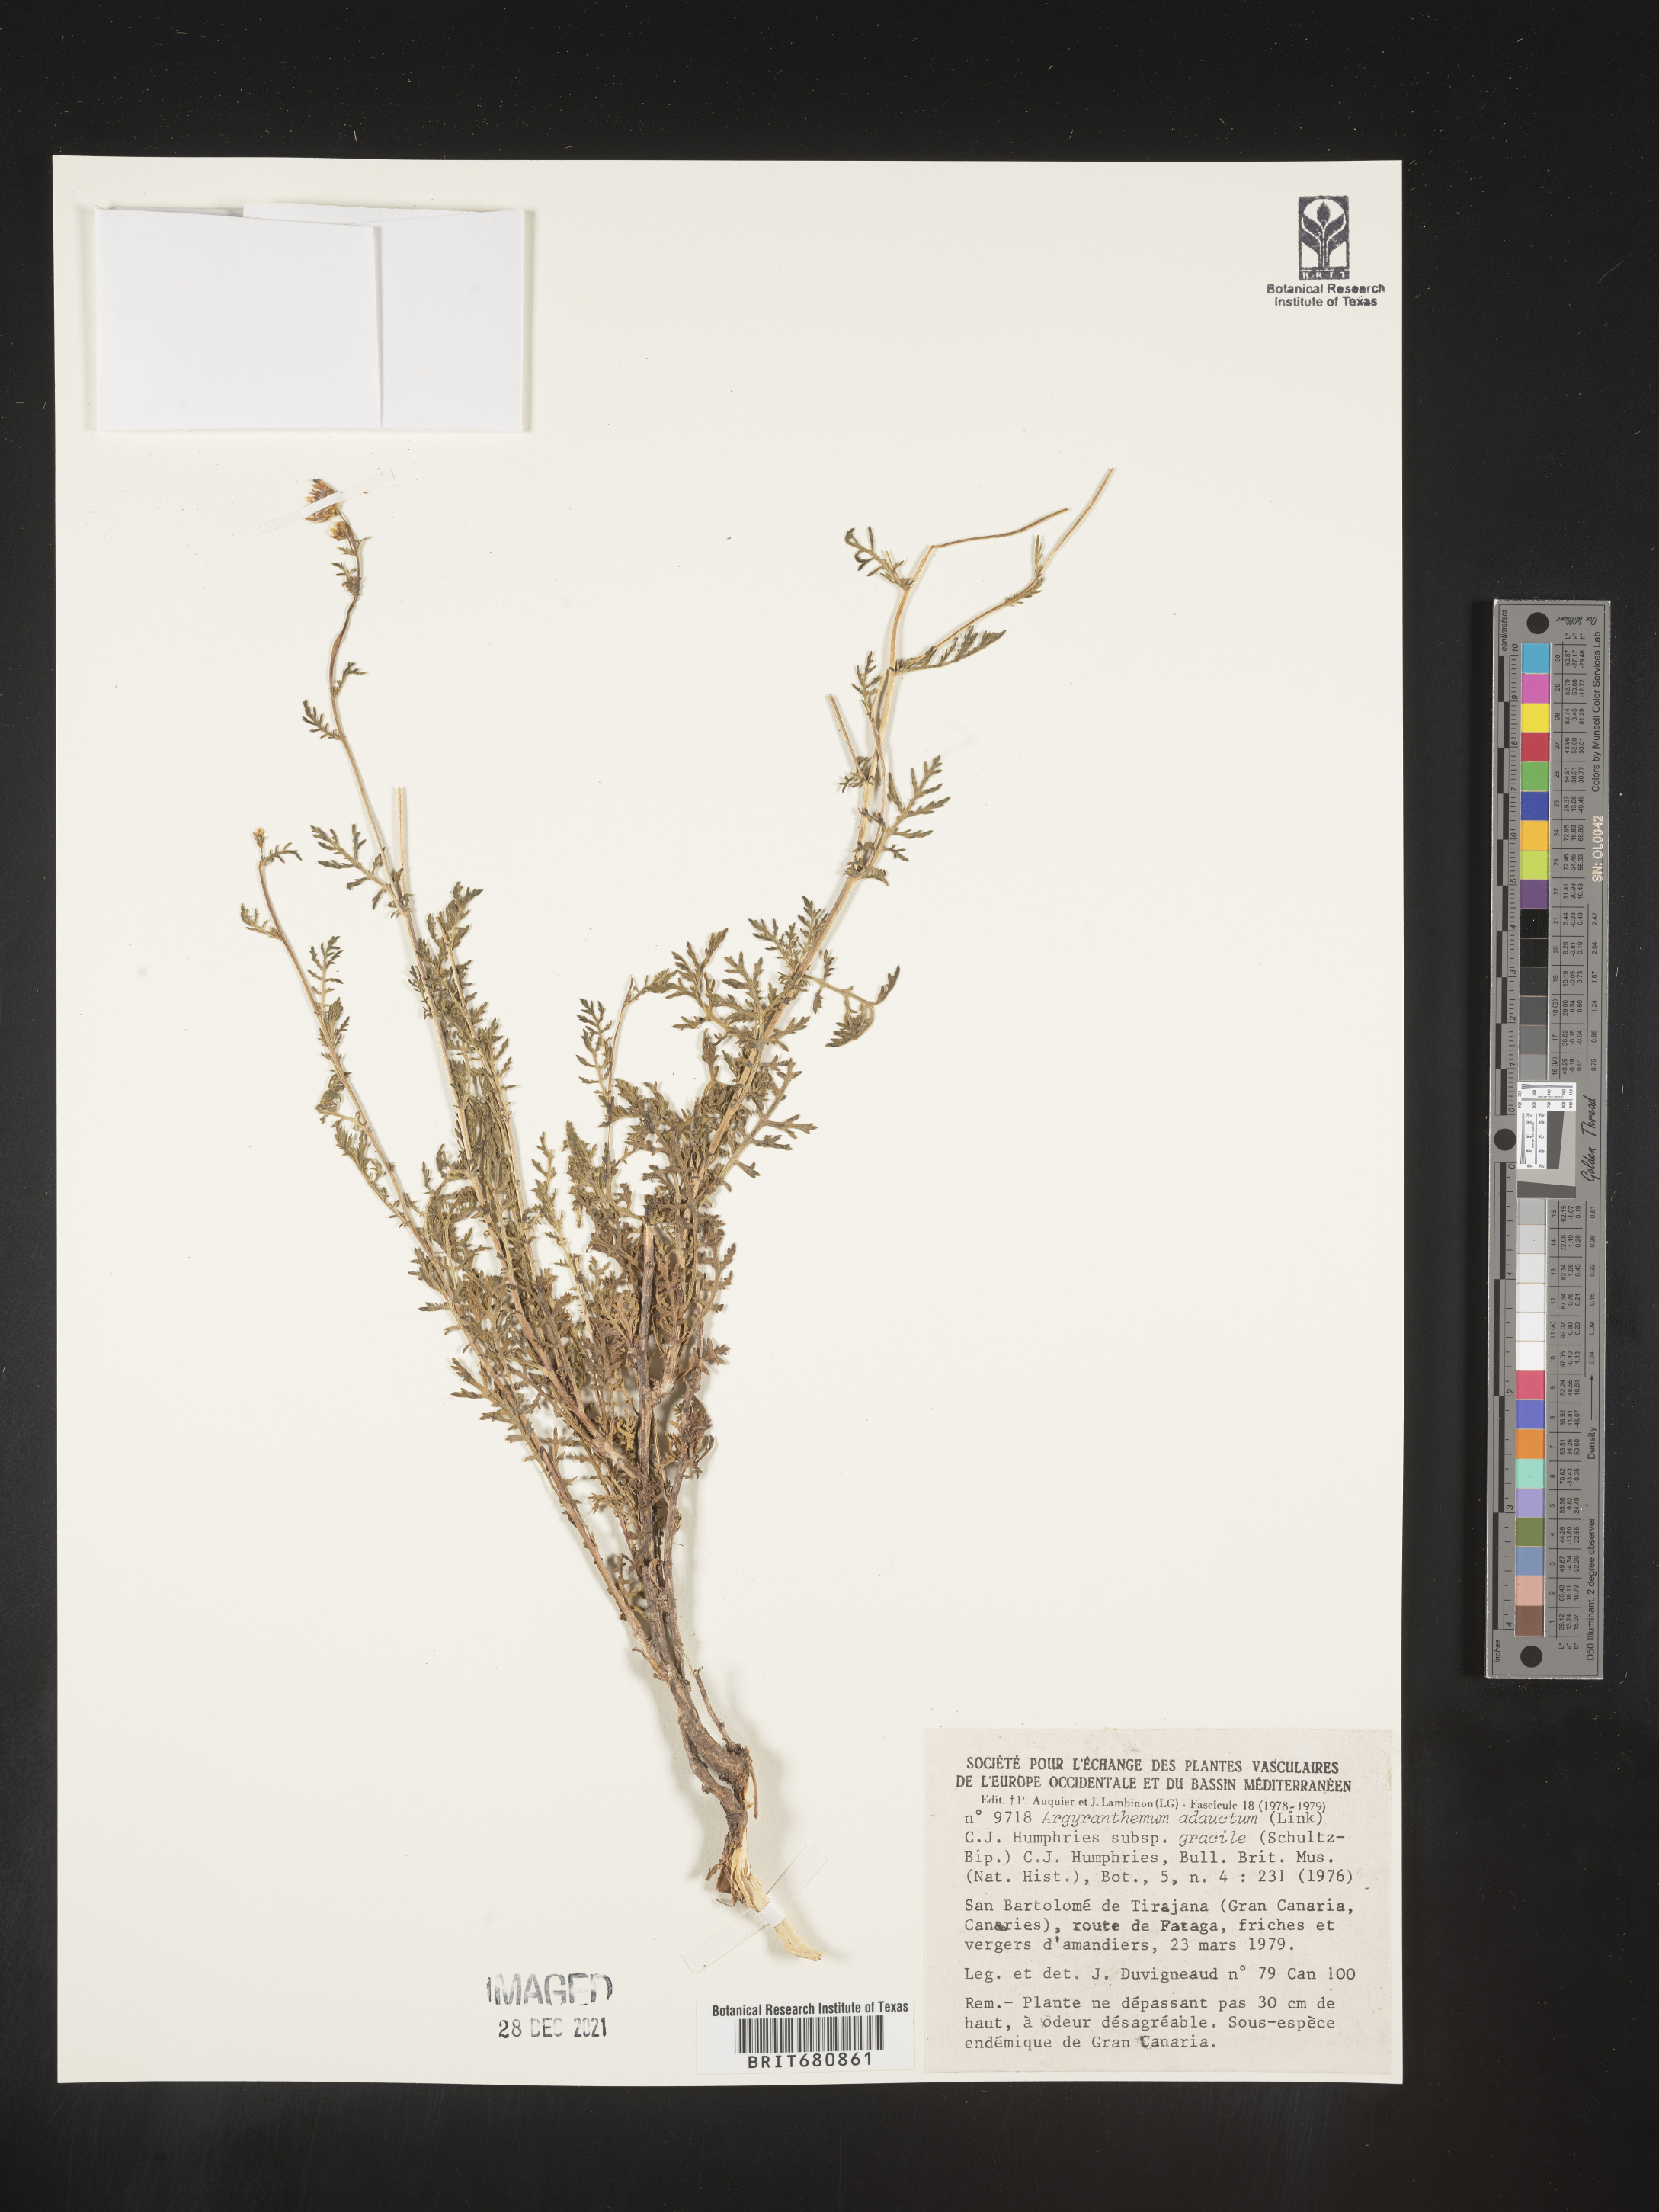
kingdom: Plantae
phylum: Tracheophyta
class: Magnoliopsida
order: Asterales
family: Asteraceae
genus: Argyranthemum
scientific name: Argyranthemum
